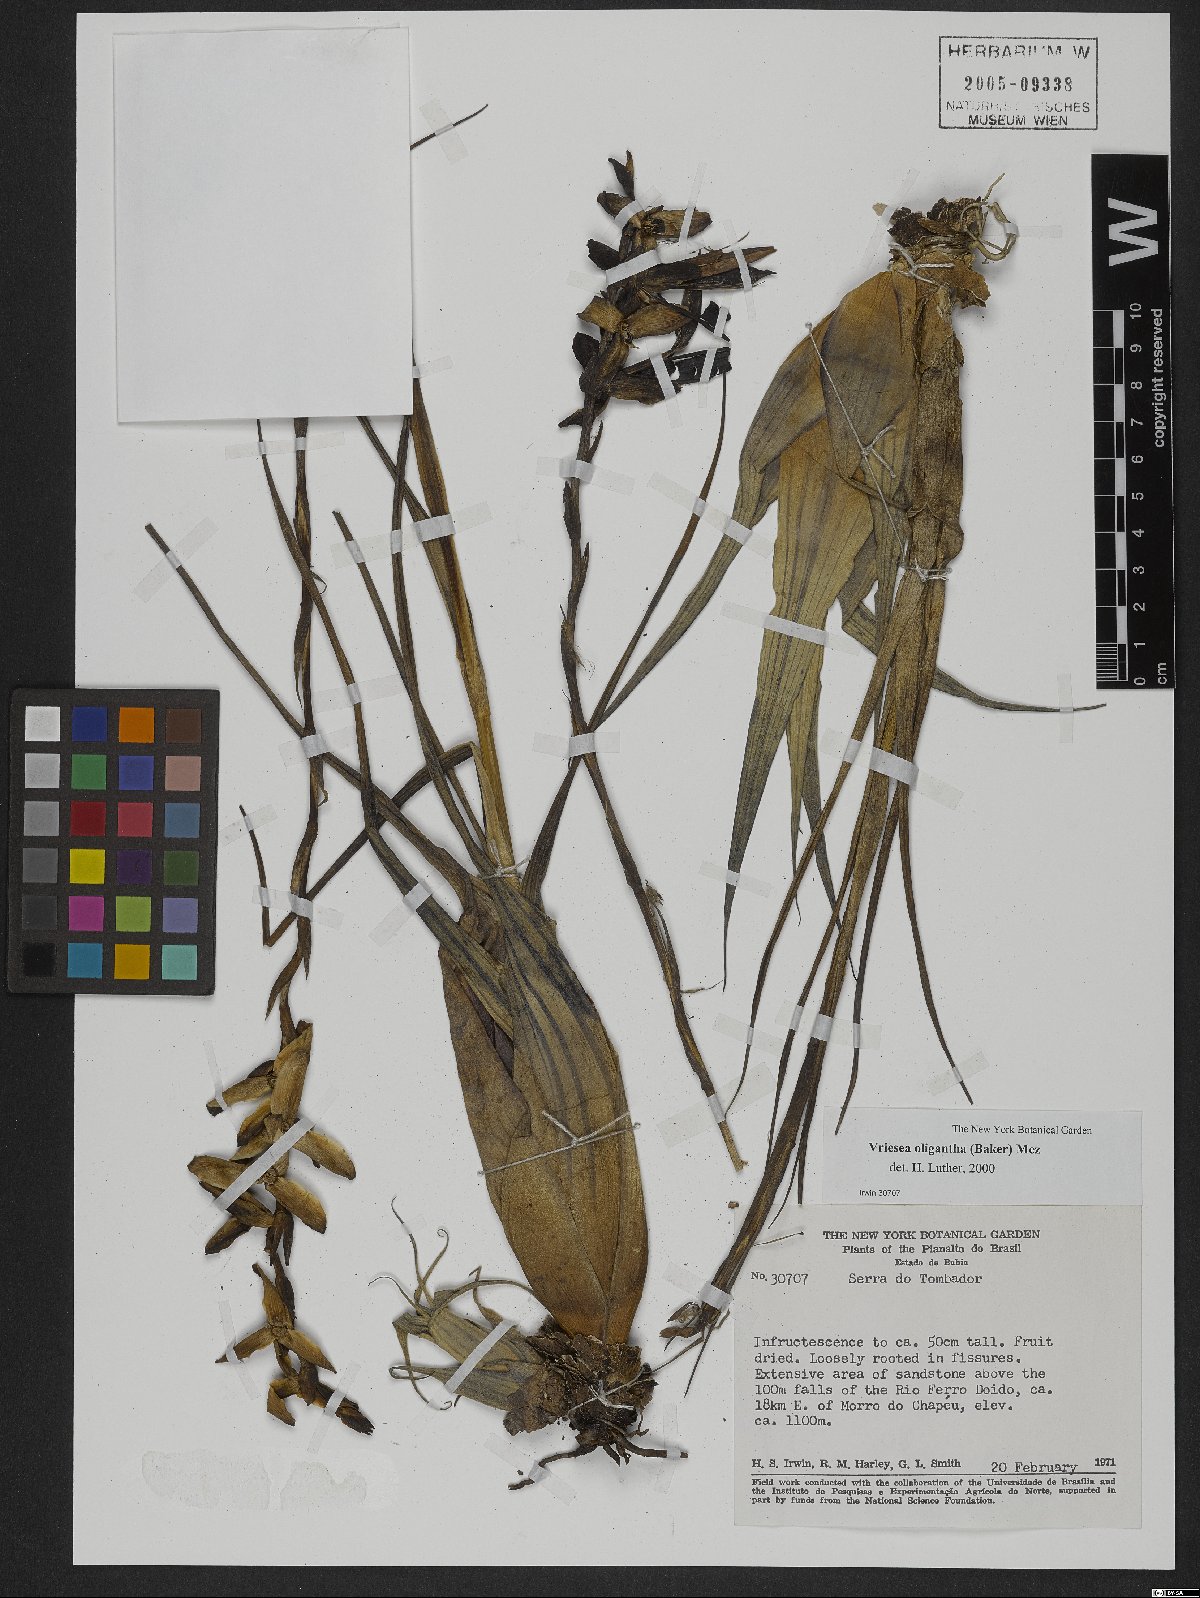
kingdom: Plantae
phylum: Tracheophyta
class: Liliopsida
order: Poales
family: Bromeliaceae
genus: Vriesea
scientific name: Vriesea oligantha
